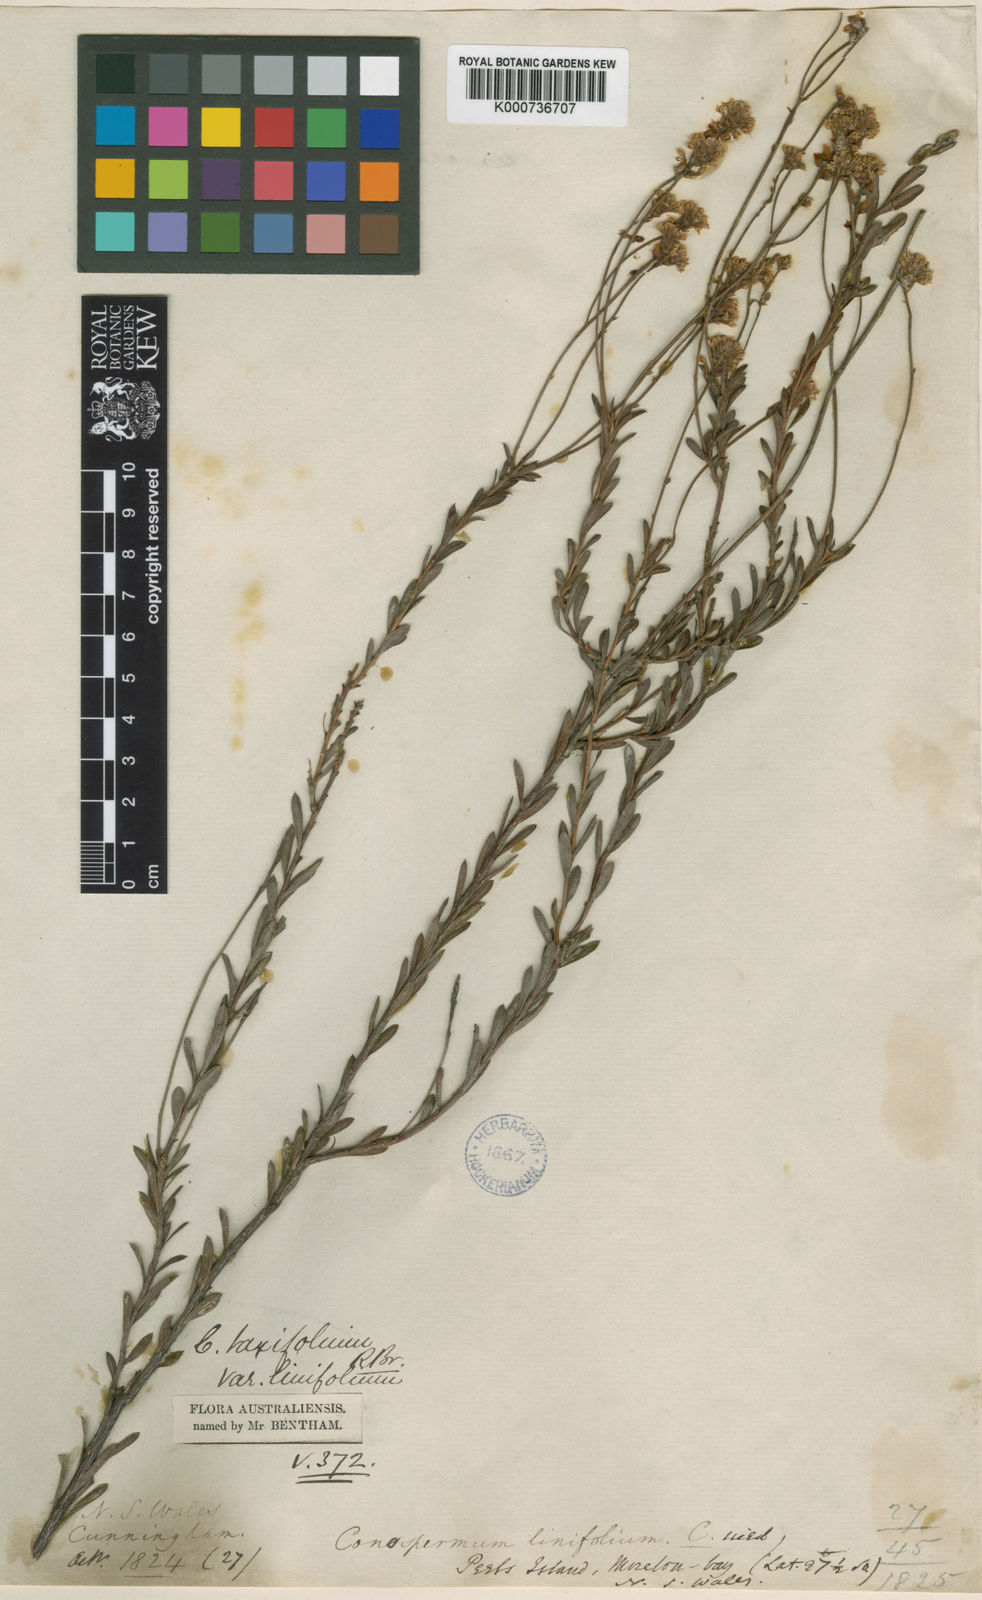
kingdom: Plantae
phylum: Tracheophyta
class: Magnoliopsida
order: Proteales
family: Proteaceae
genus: Conospermum
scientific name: Conospermum taxifolium
